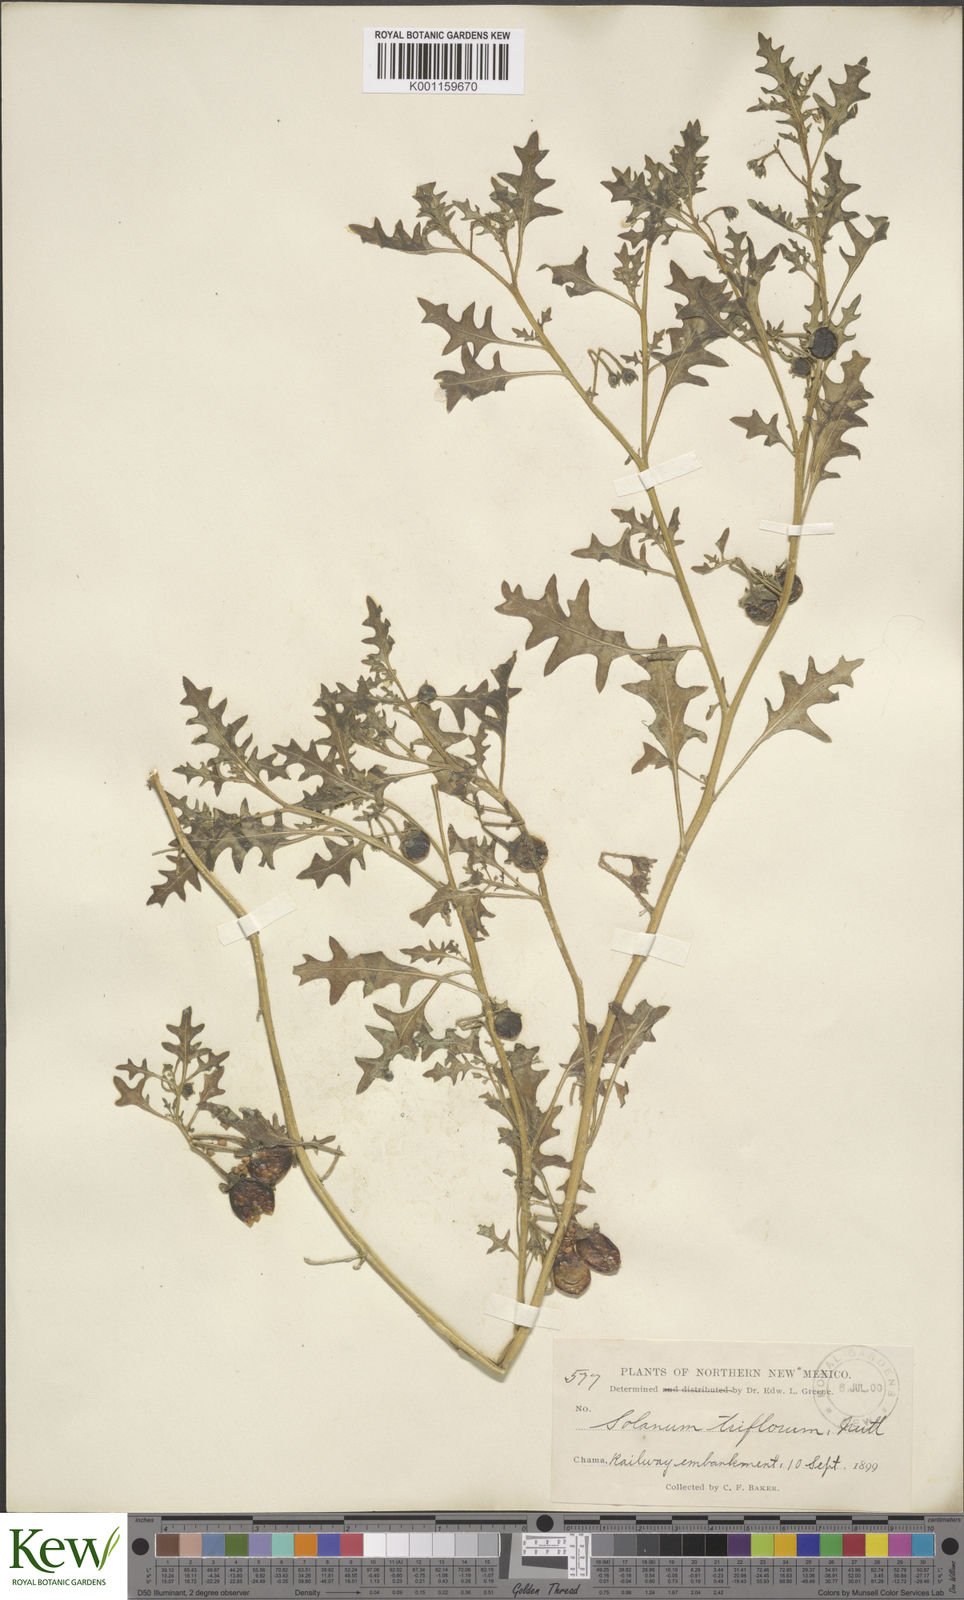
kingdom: Plantae
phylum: Tracheophyta
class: Magnoliopsida
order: Solanales
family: Solanaceae
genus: Solanum
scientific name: Solanum triflorum
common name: Small nightshade
